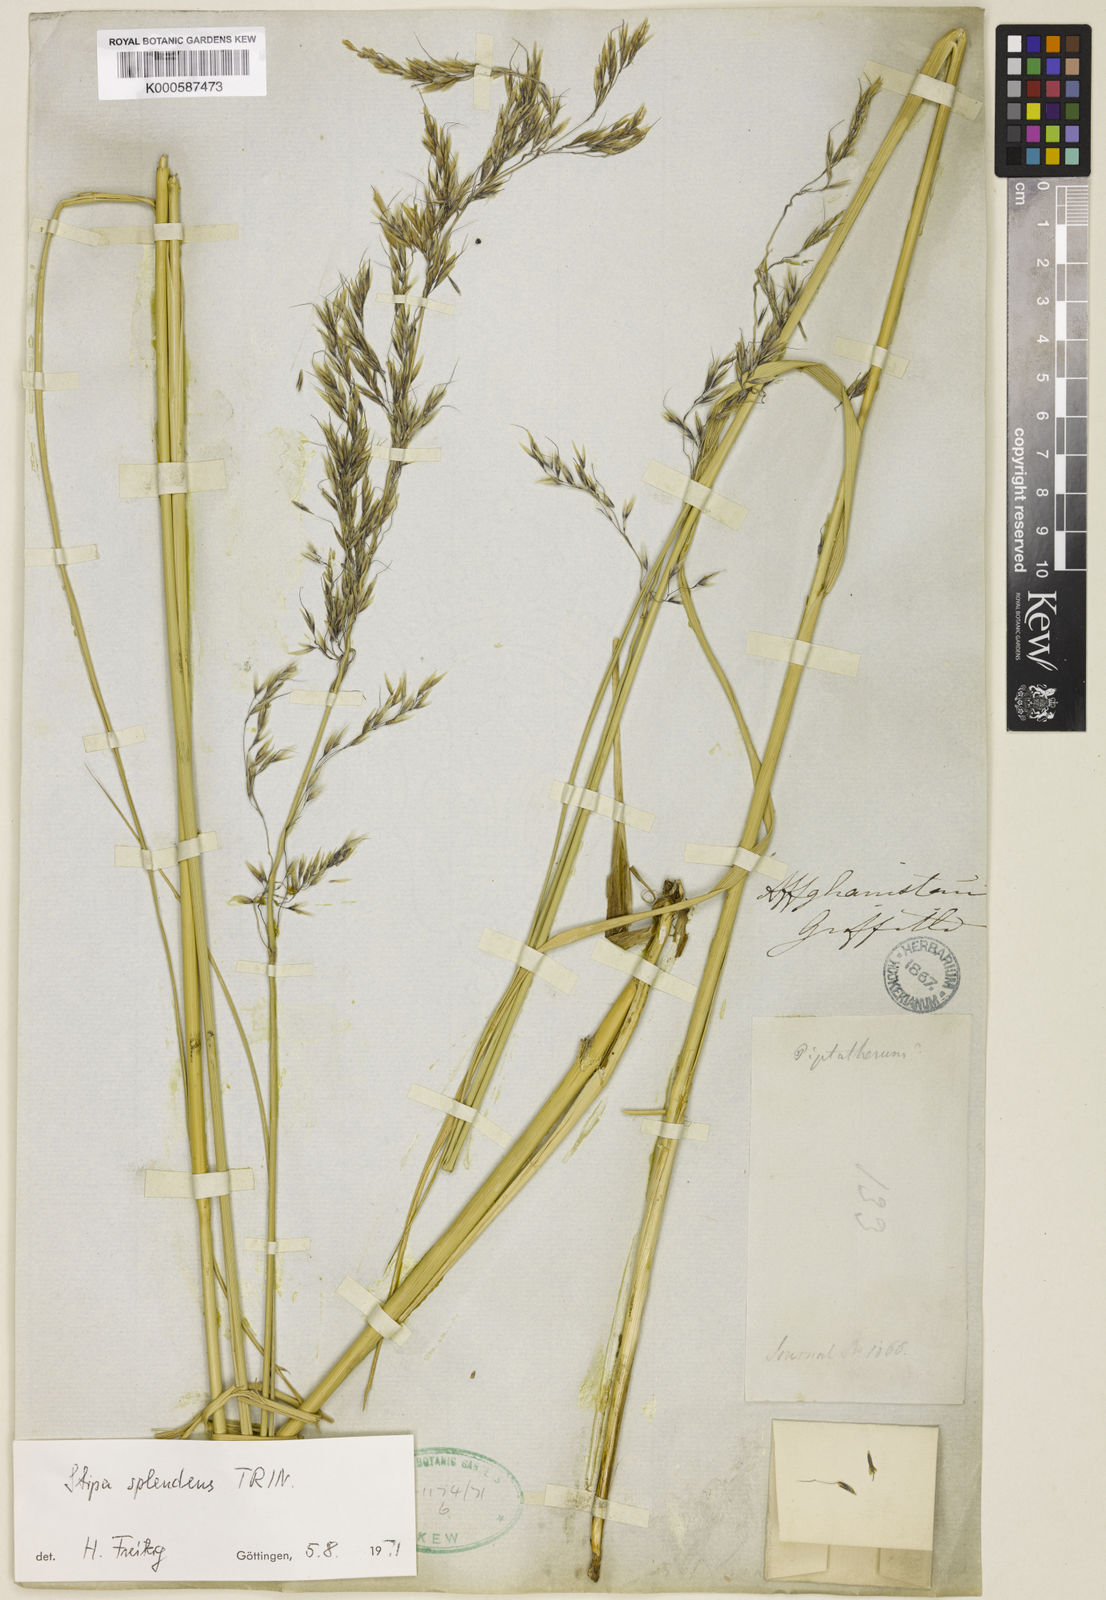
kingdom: Plantae
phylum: Tracheophyta
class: Liliopsida
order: Poales
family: Poaceae
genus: Neotrinia
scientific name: Neotrinia splendens
